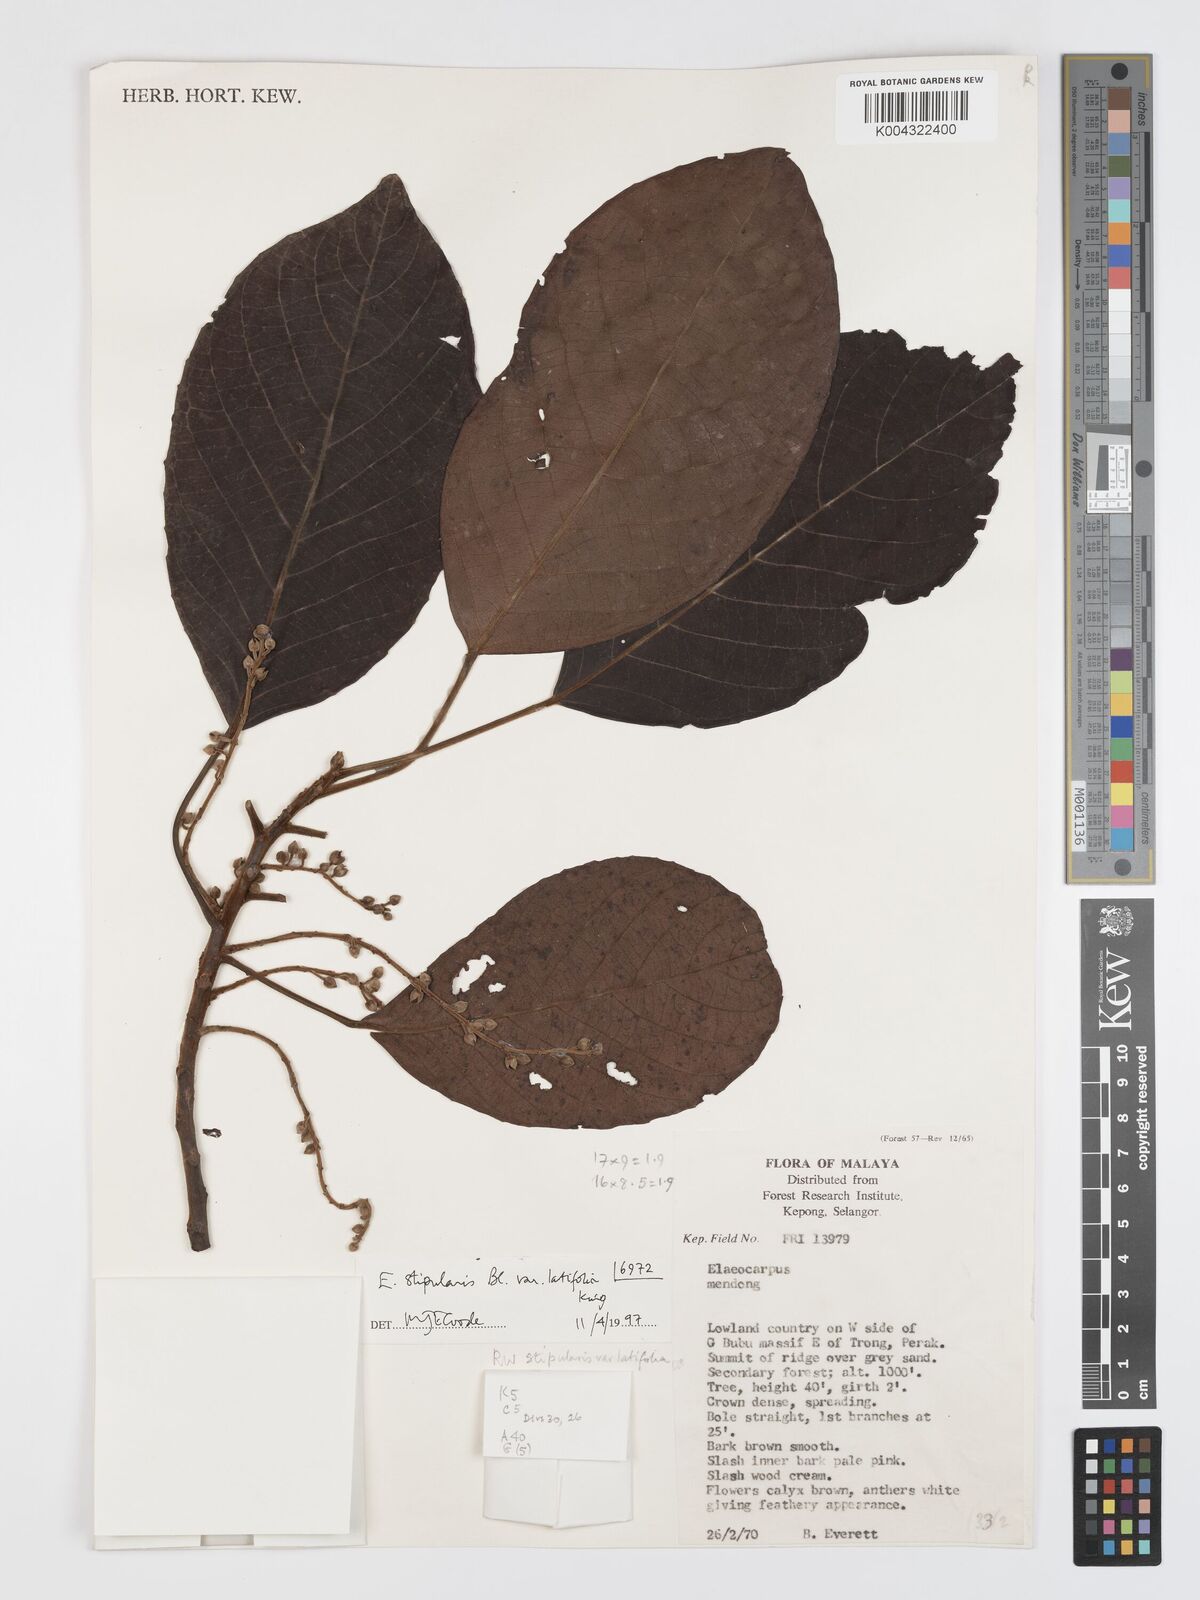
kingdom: Plantae
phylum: Tracheophyta
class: Magnoliopsida
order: Oxalidales
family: Elaeocarpaceae
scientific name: Elaeocarpaceae
